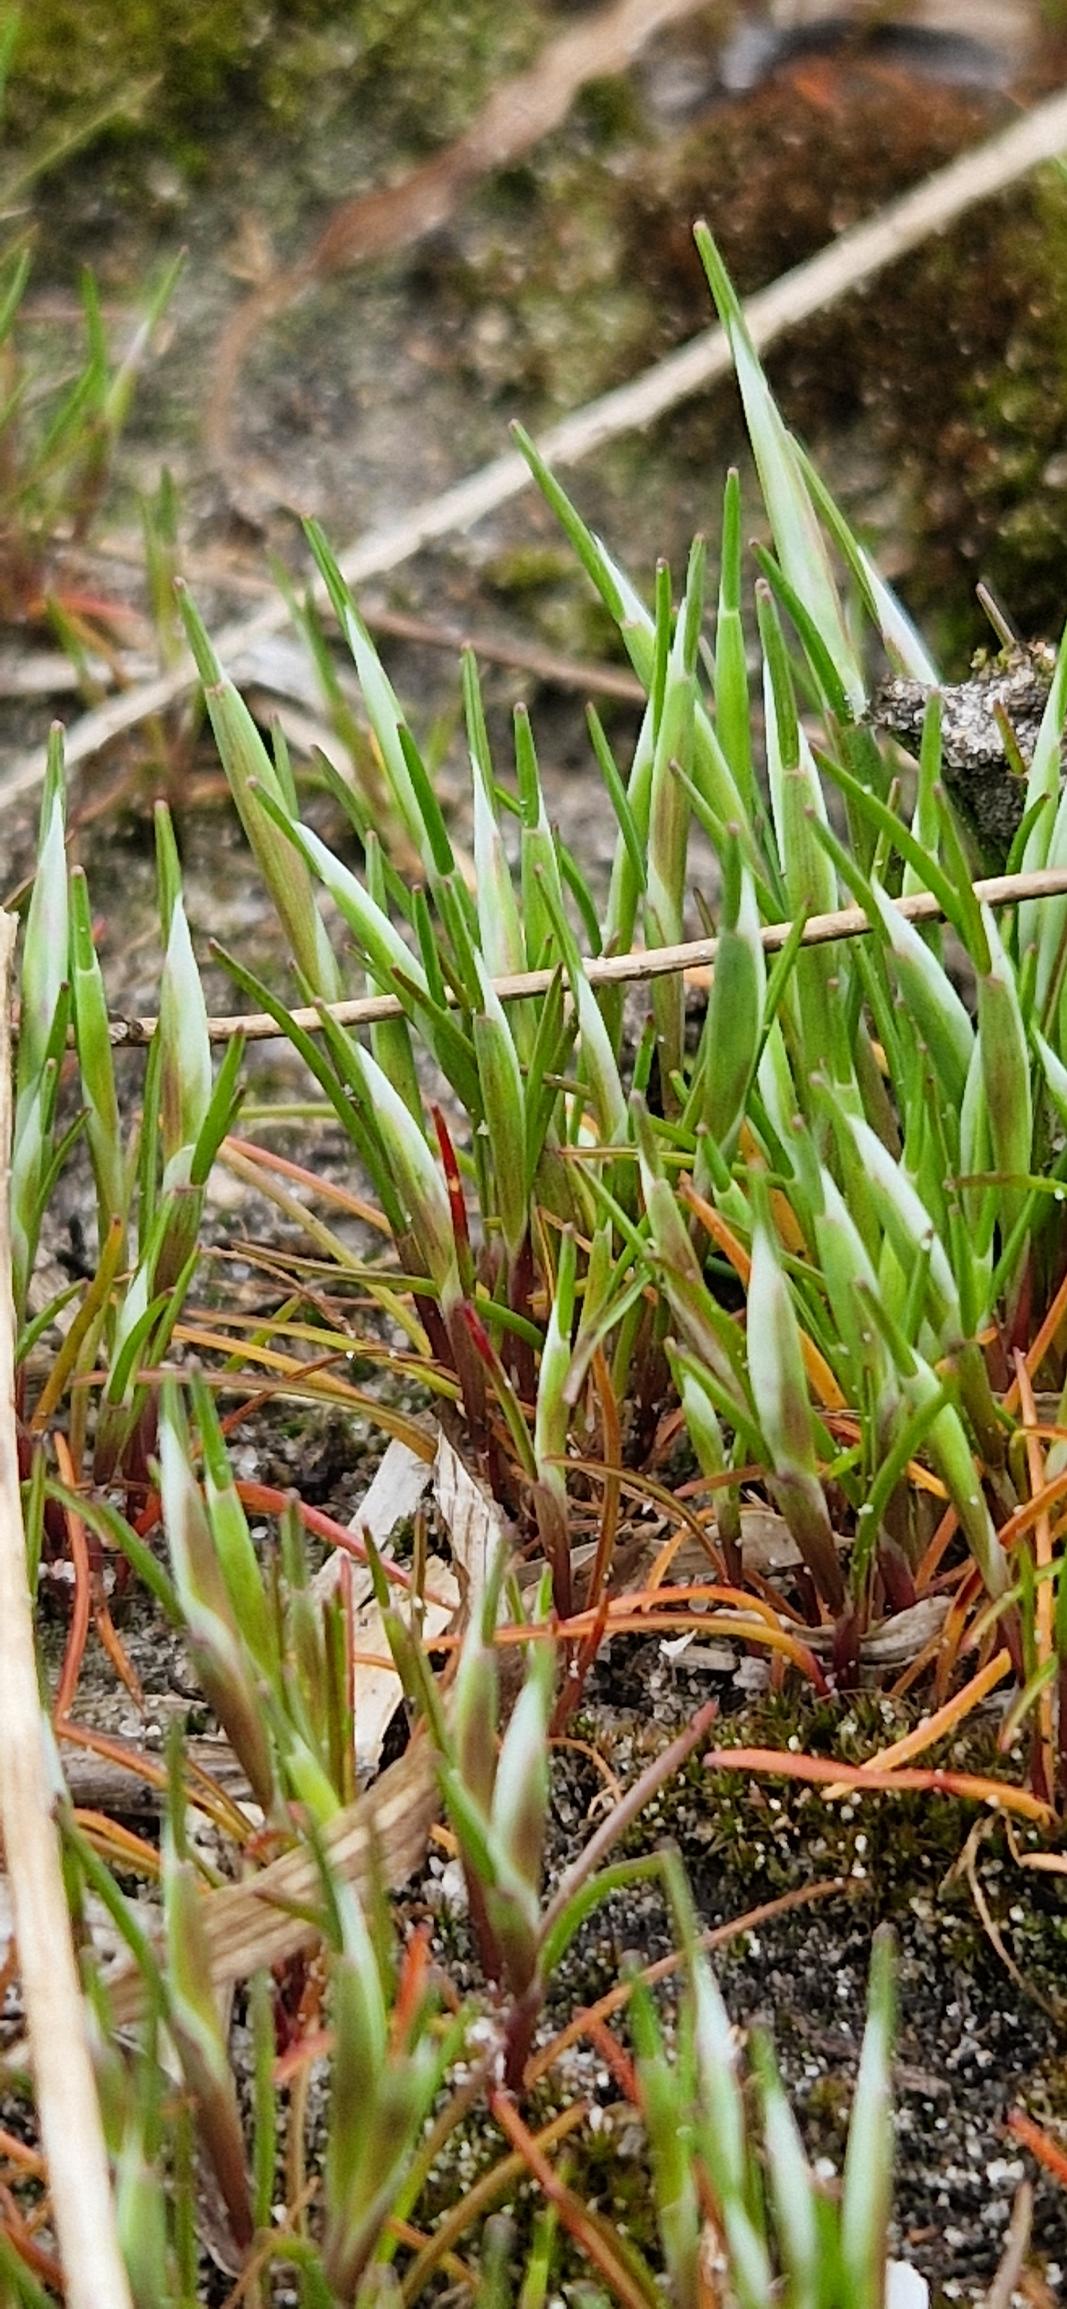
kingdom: Plantae
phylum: Tracheophyta
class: Liliopsida
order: Poales
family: Poaceae
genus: Aira
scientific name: Aira praecox
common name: Tidlig dværgbunke
